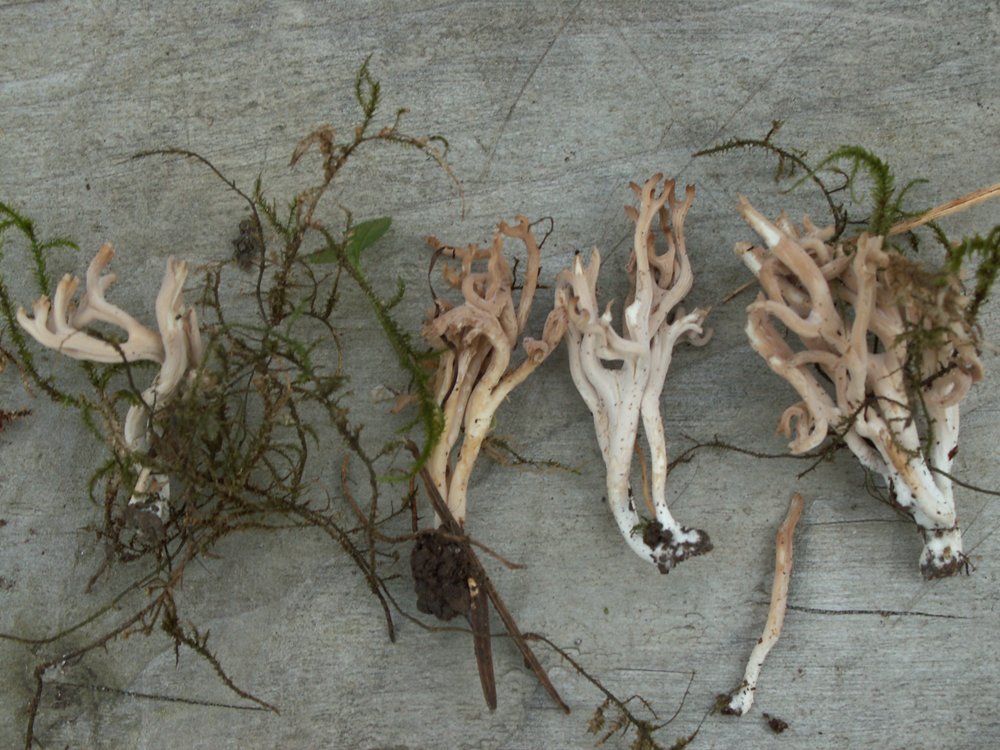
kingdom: Fungi
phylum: Basidiomycota
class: Agaricomycetes
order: Agaricales
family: Clavariaceae
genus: Clavulinopsis
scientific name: Clavulinopsis umbrinella
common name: gulgrå køllesvamp
